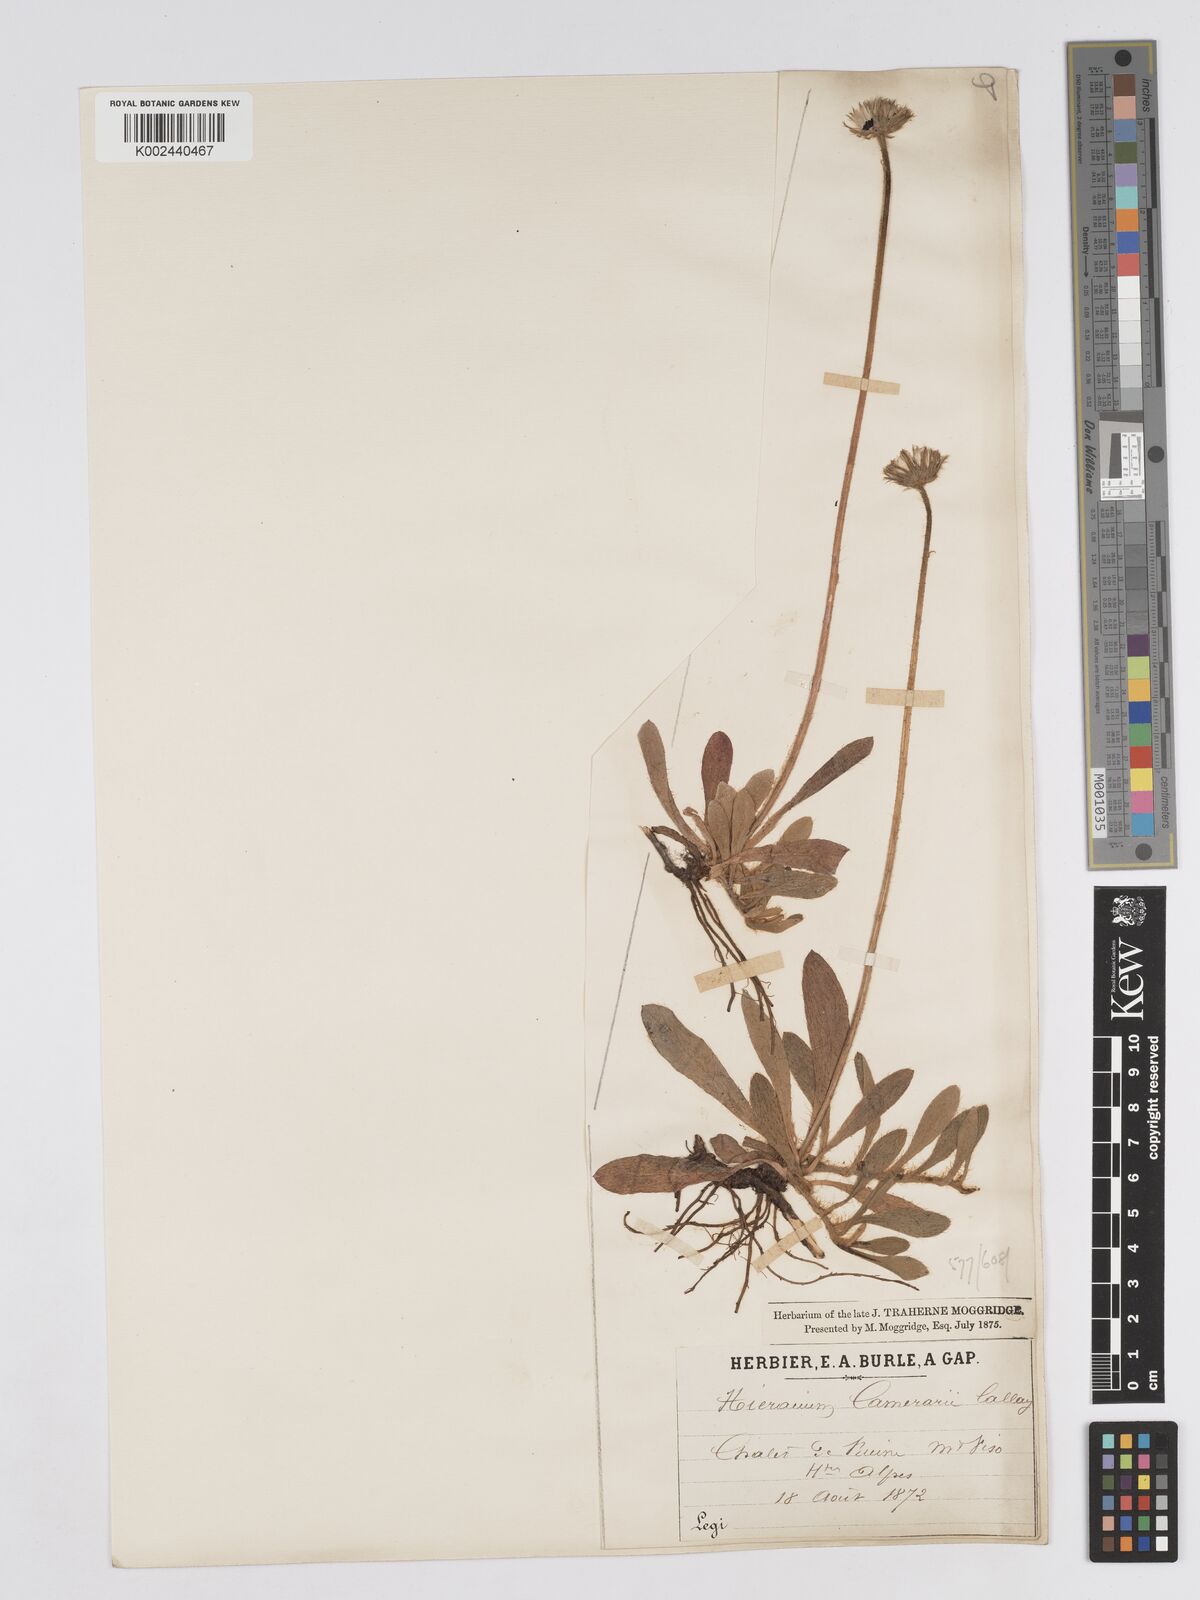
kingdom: Plantae
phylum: Tracheophyta
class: Magnoliopsida
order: Asterales
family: Asteraceae
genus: Pilosella
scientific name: Pilosella velutina
